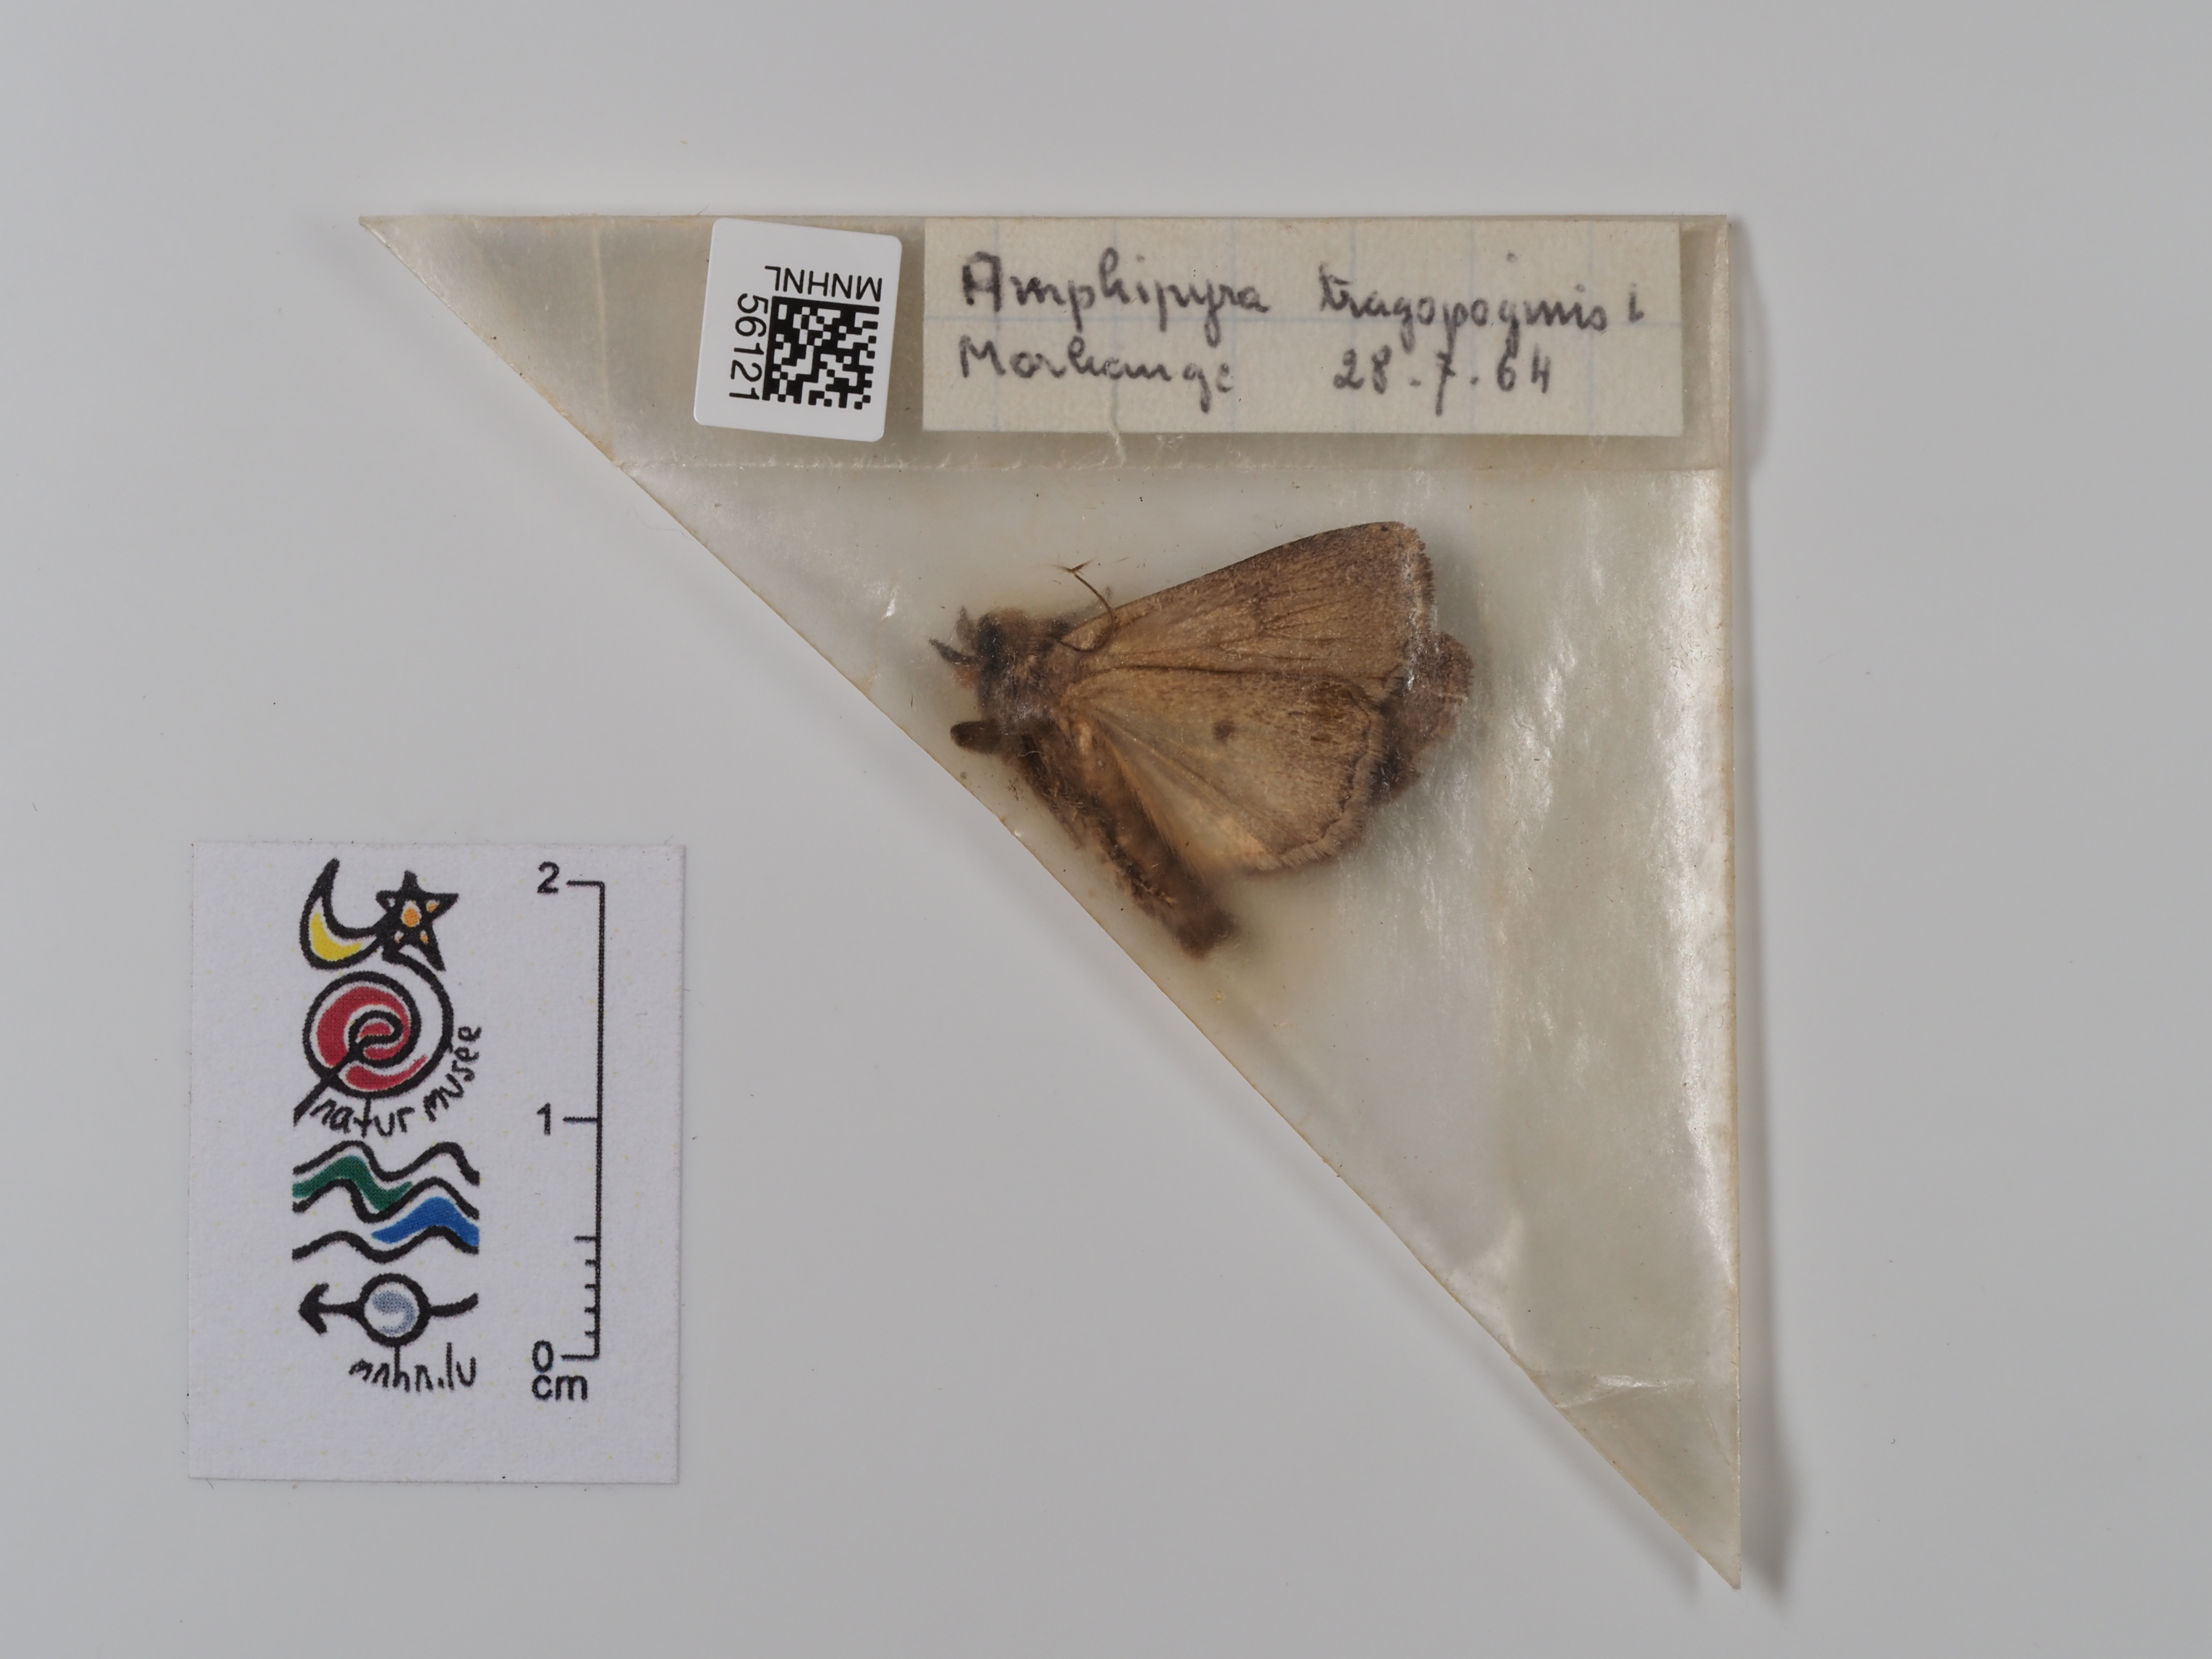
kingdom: Animalia
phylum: Arthropoda
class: Insecta
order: Lepidoptera
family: Noctuidae
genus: Amphipyra
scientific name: Amphipyra tragopoginis
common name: Mouse moth
